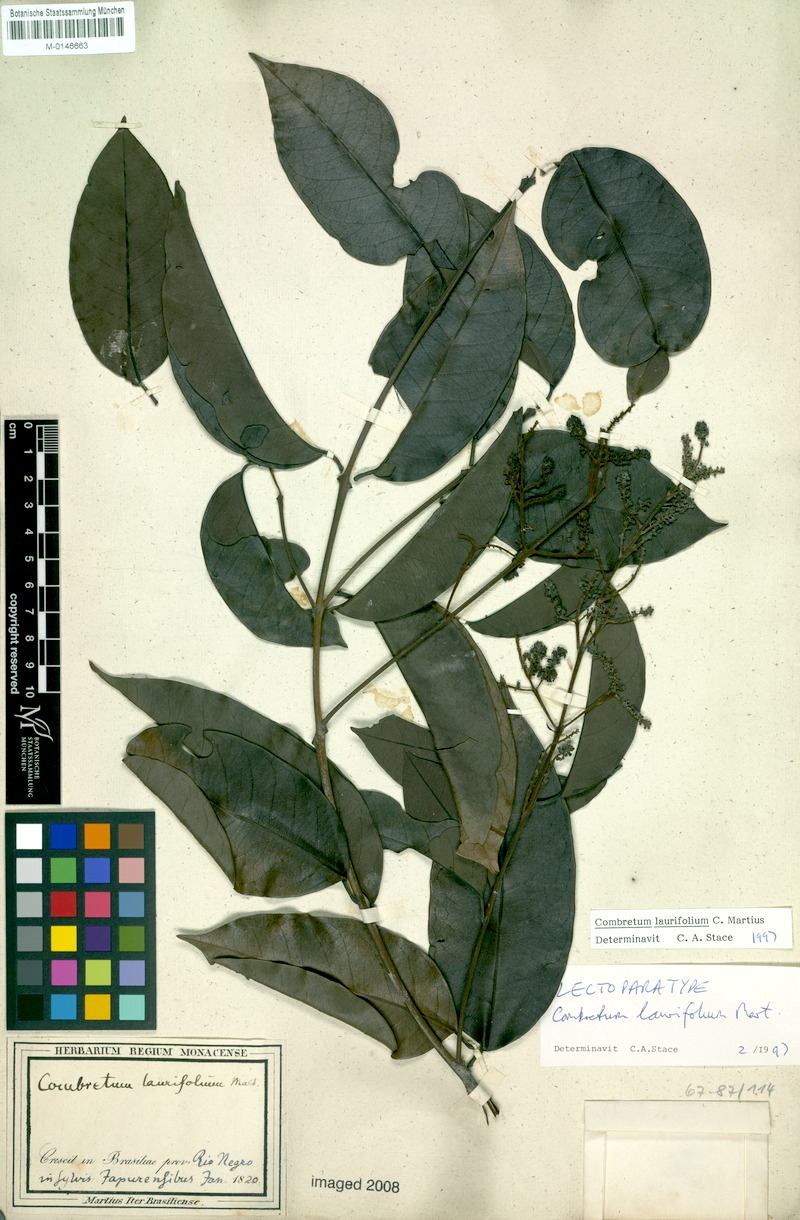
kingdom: Plantae
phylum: Tracheophyta
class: Magnoliopsida
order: Myrtales
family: Combretaceae
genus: Combretum
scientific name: Combretum laurifolium
